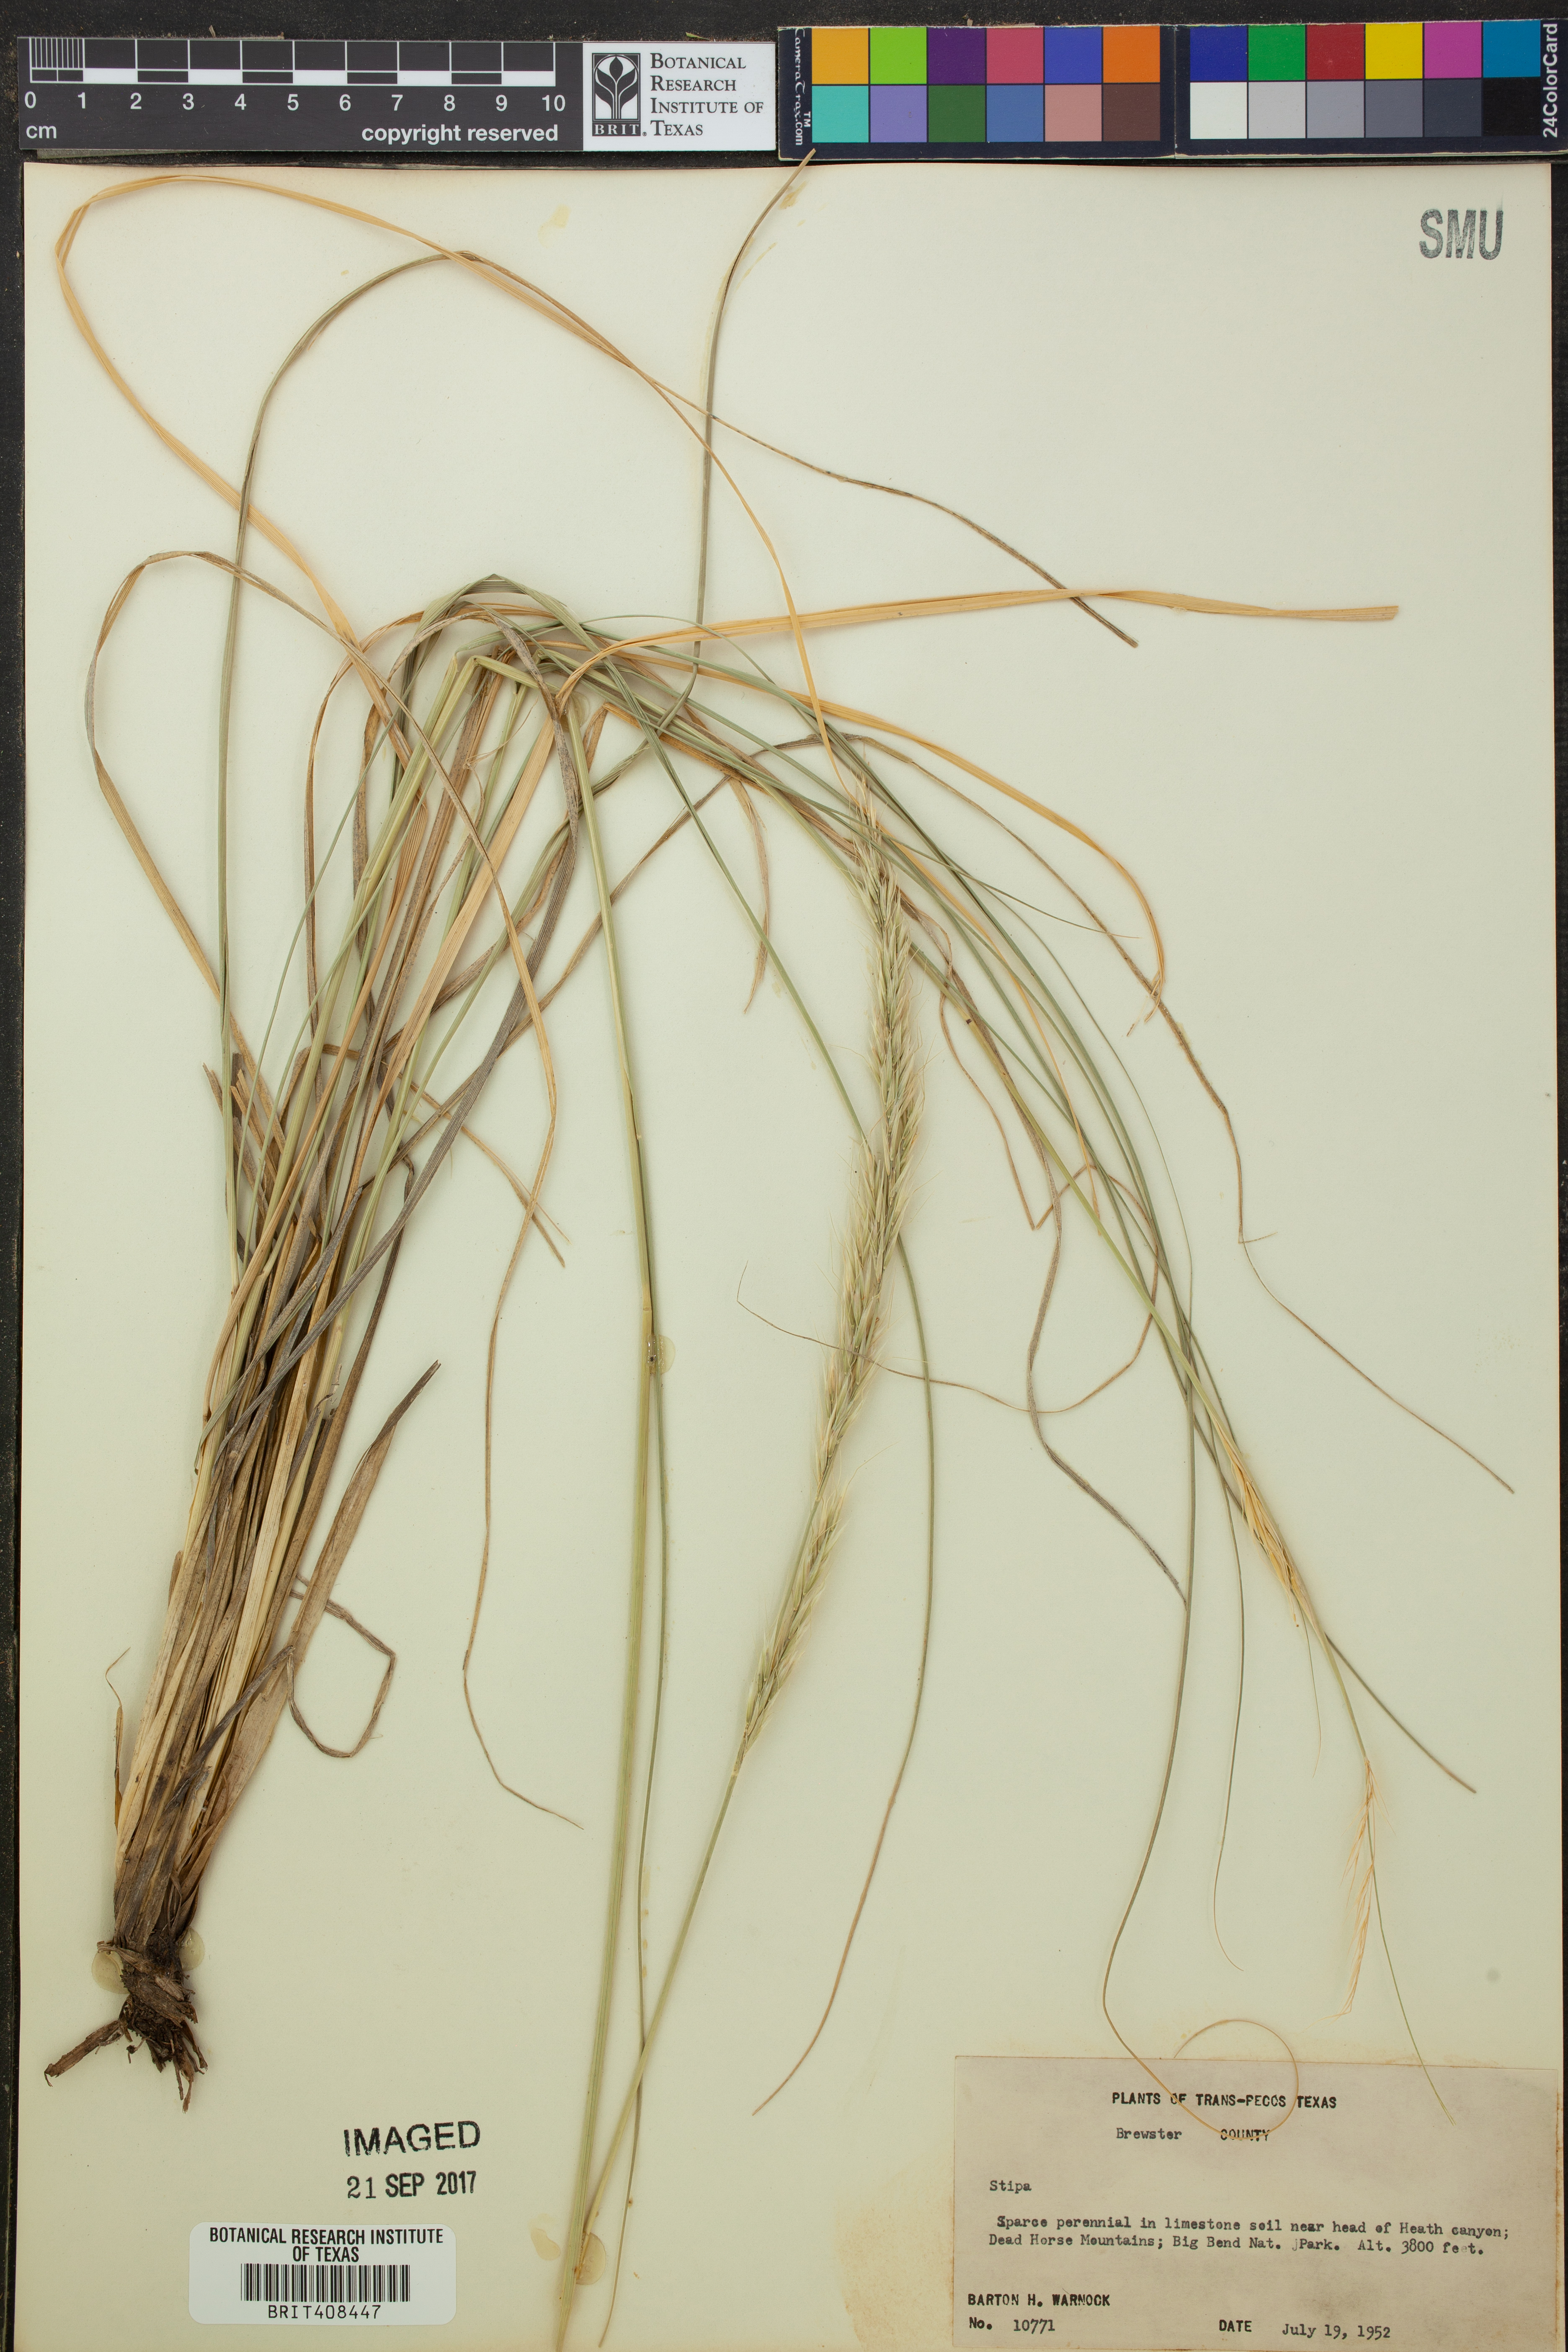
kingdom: Plantae
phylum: Tracheophyta
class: Liliopsida
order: Poales
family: Poaceae
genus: Stipa
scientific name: Stipa
